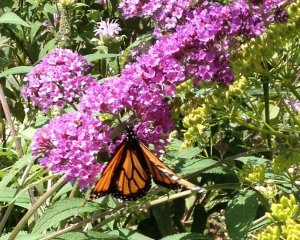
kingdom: Animalia
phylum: Arthropoda
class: Insecta
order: Lepidoptera
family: Nymphalidae
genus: Danaus
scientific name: Danaus plexippus
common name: Monarch
